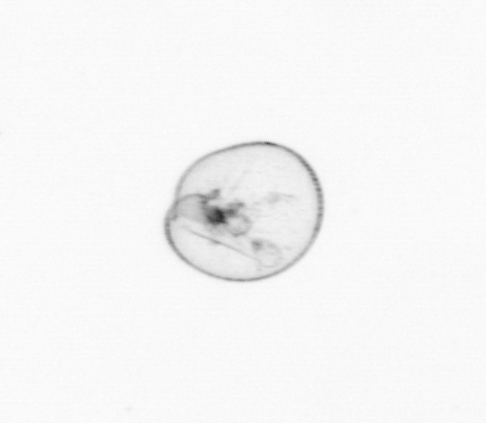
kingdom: Chromista
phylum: Myzozoa
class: Dinophyceae
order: Noctilucales
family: Noctilucaceae
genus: Noctiluca
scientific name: Noctiluca scintillans
